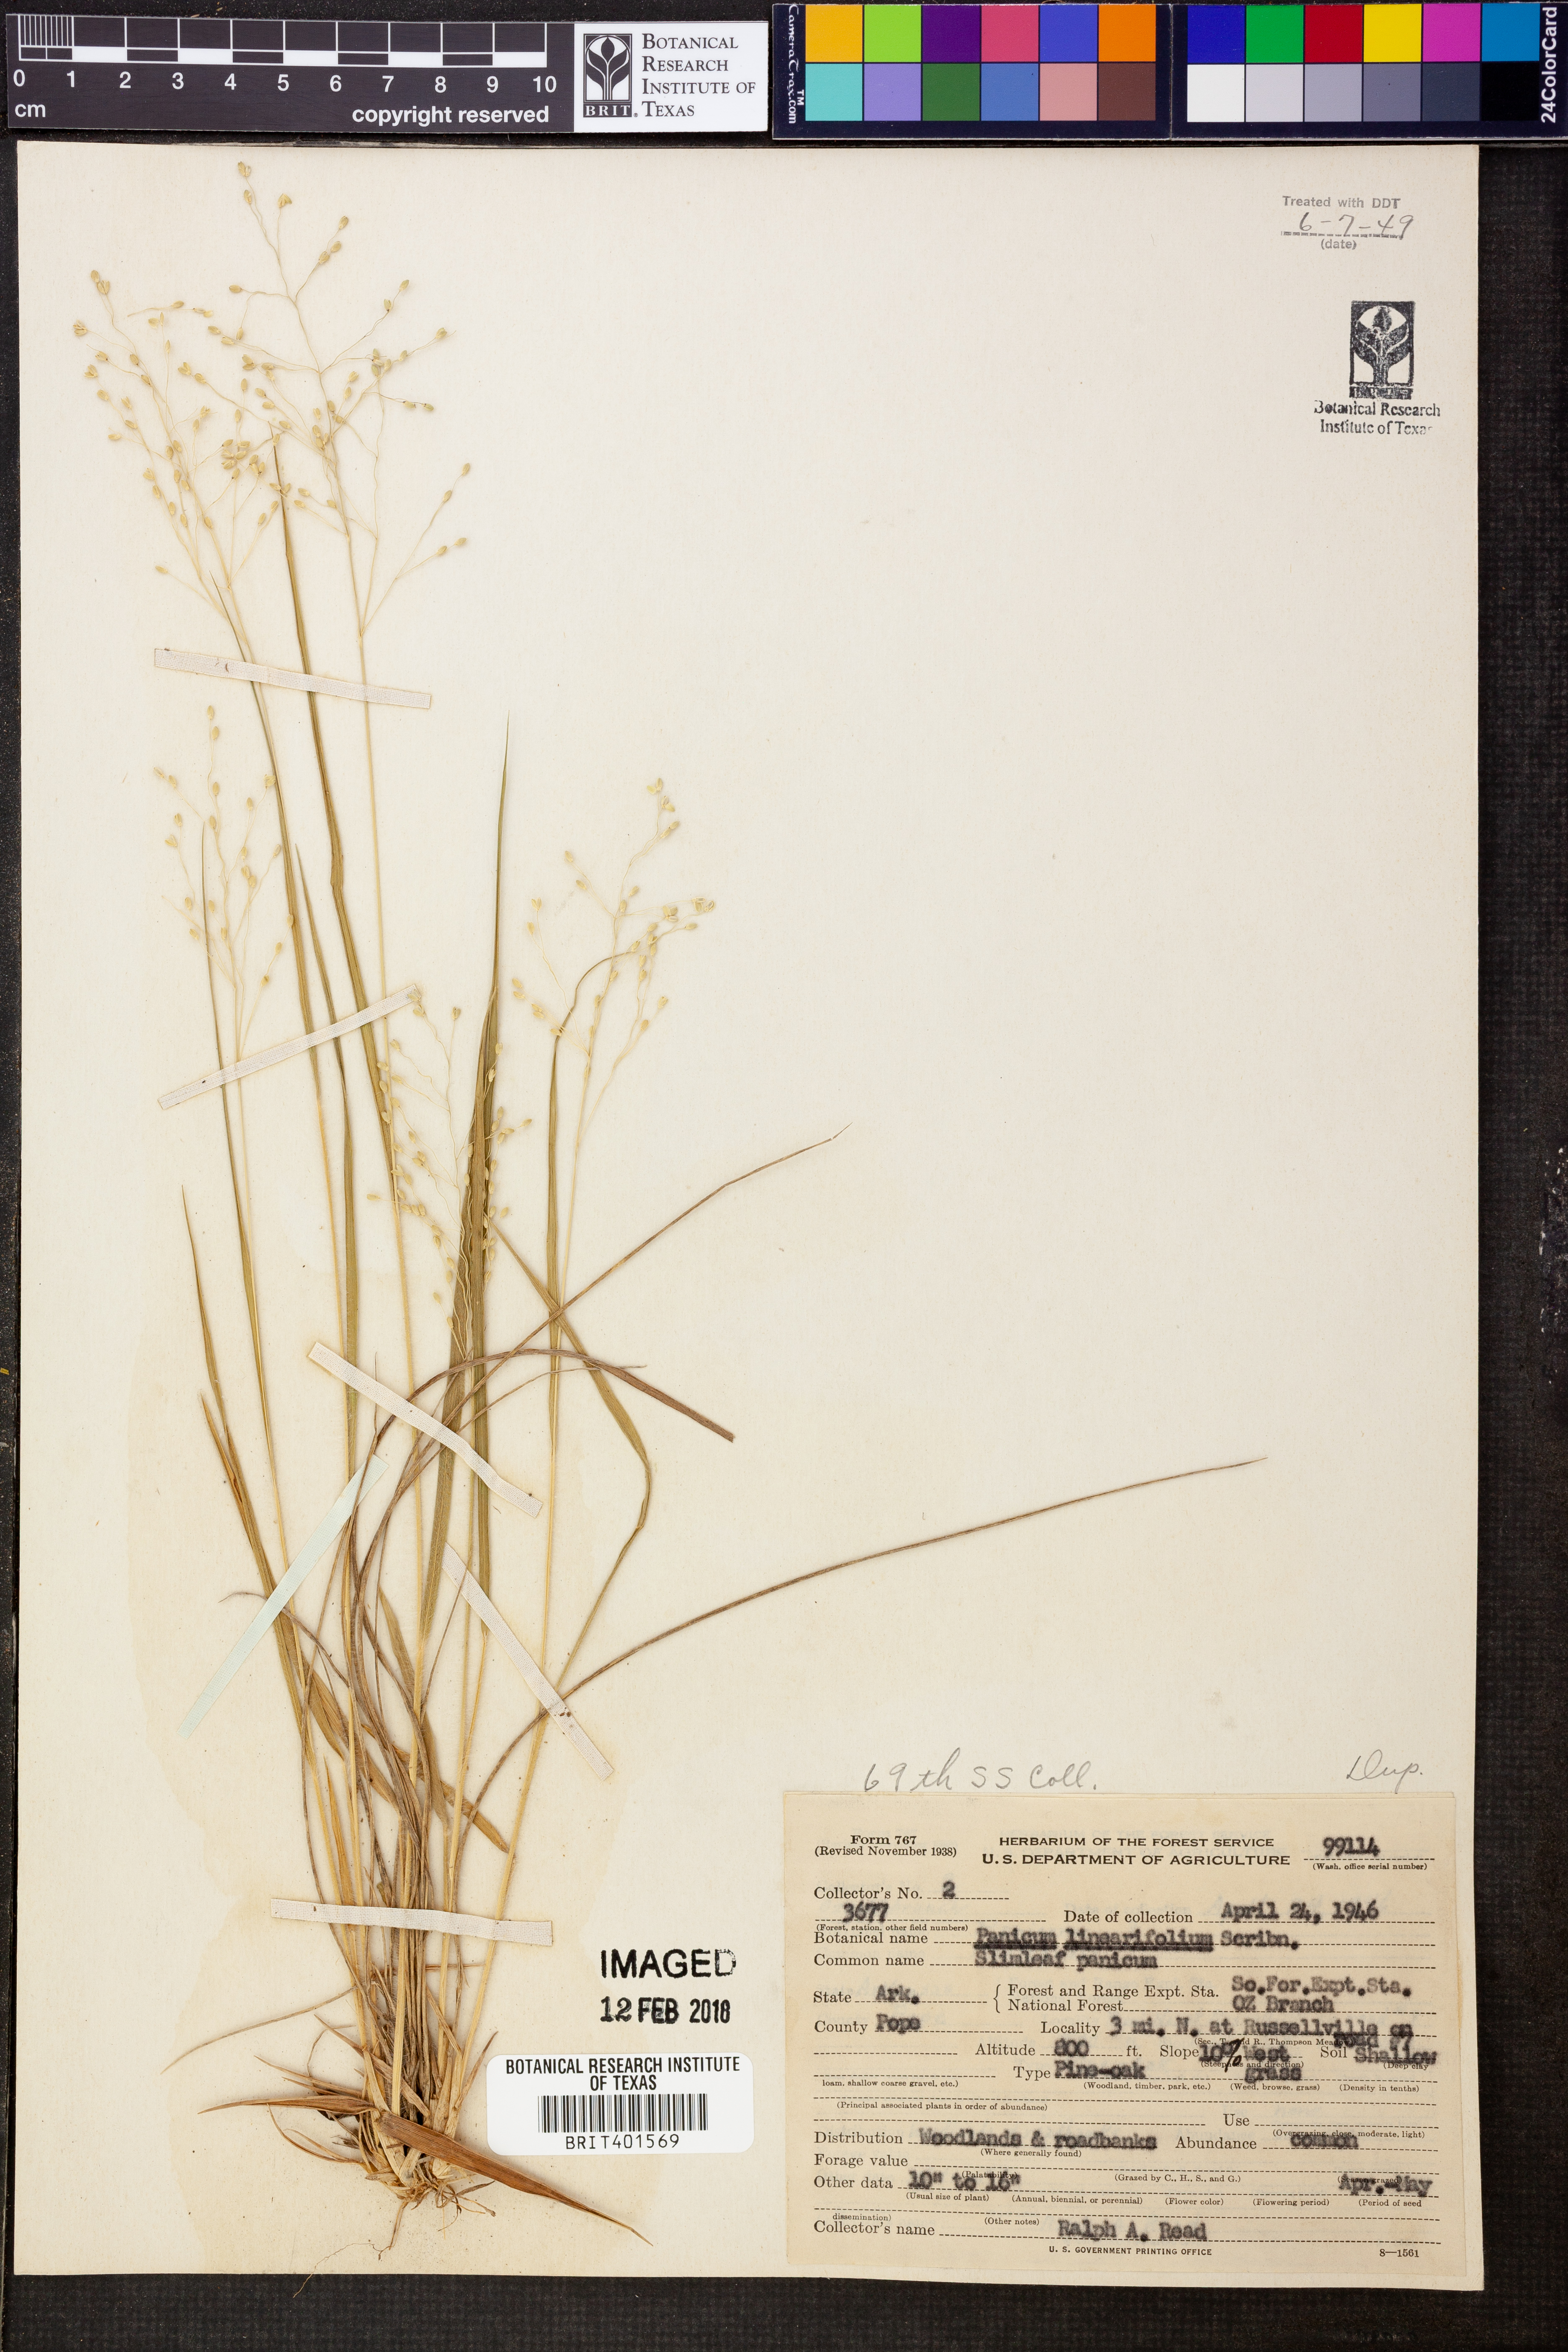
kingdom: Plantae
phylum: Tracheophyta
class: Liliopsida
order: Poales
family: Poaceae
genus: Dichanthelium
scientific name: Dichanthelium linearifolium
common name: Linear-leaved panicgrass
